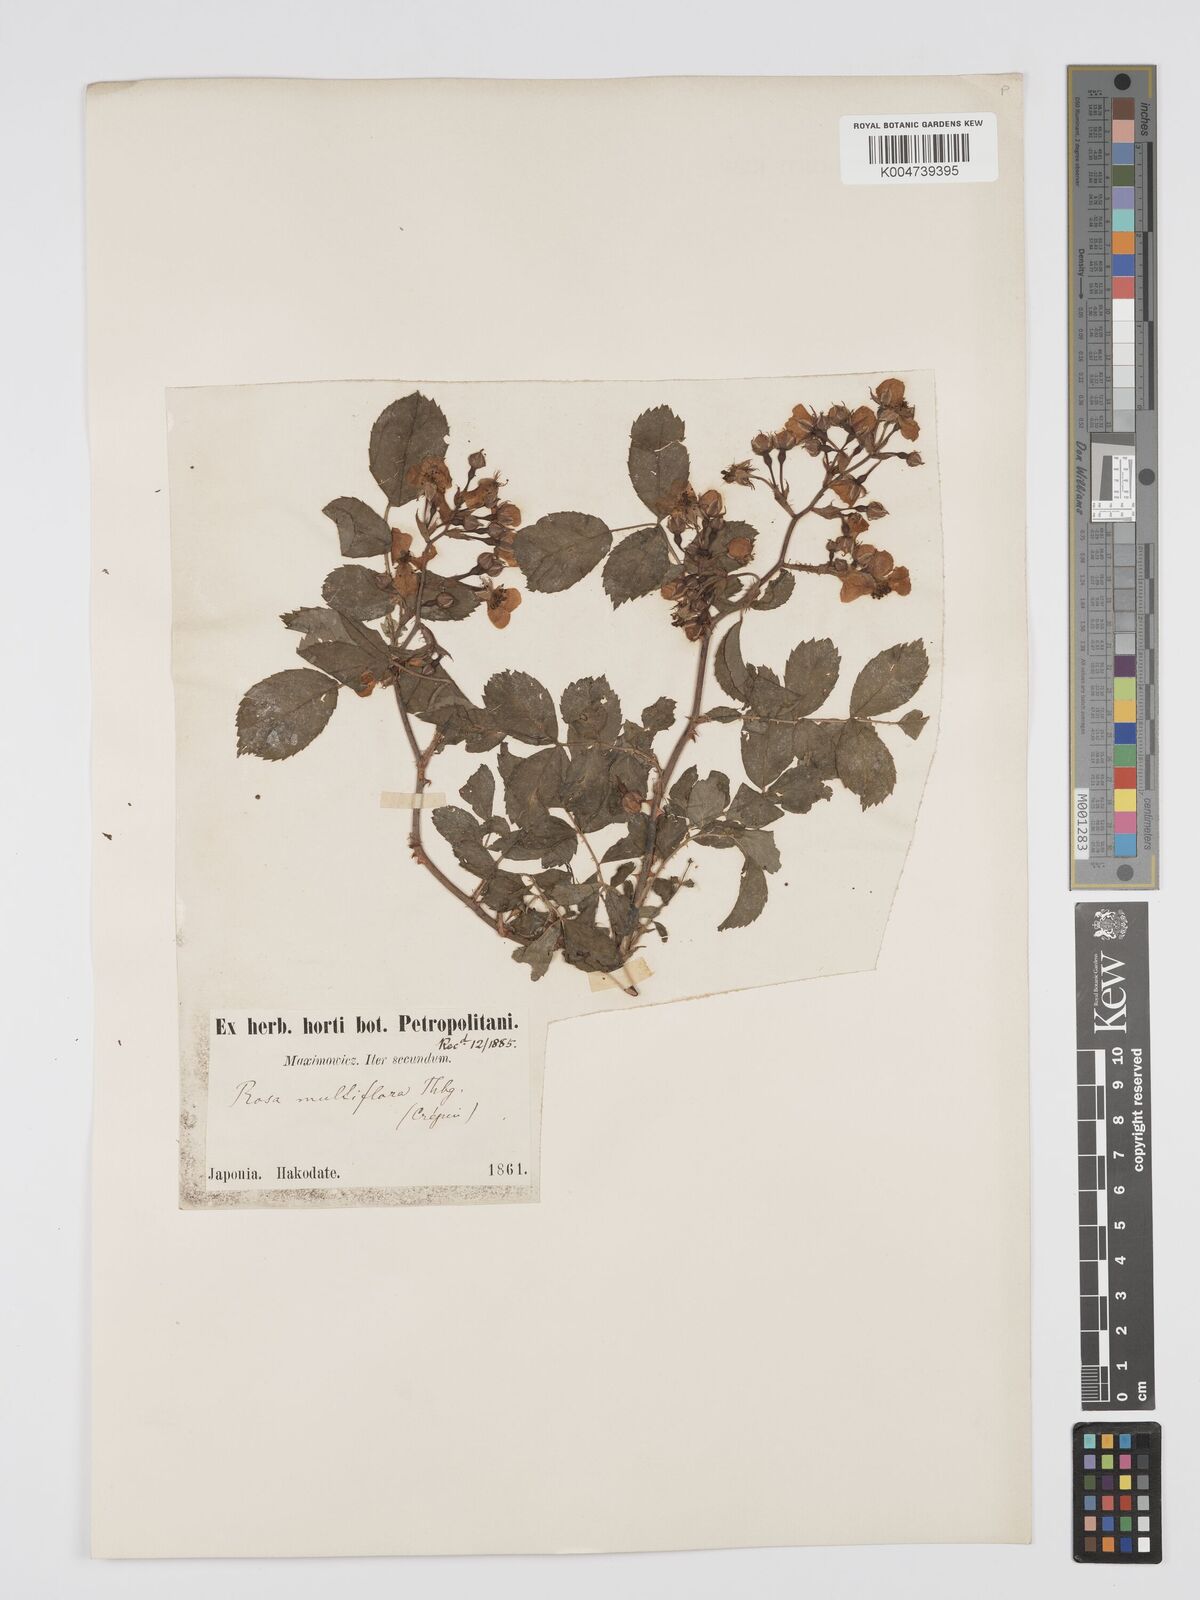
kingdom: Plantae
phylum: Tracheophyta
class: Magnoliopsida
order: Rosales
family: Rosaceae
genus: Rosa
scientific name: Rosa multiflora
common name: Multiflora rose
